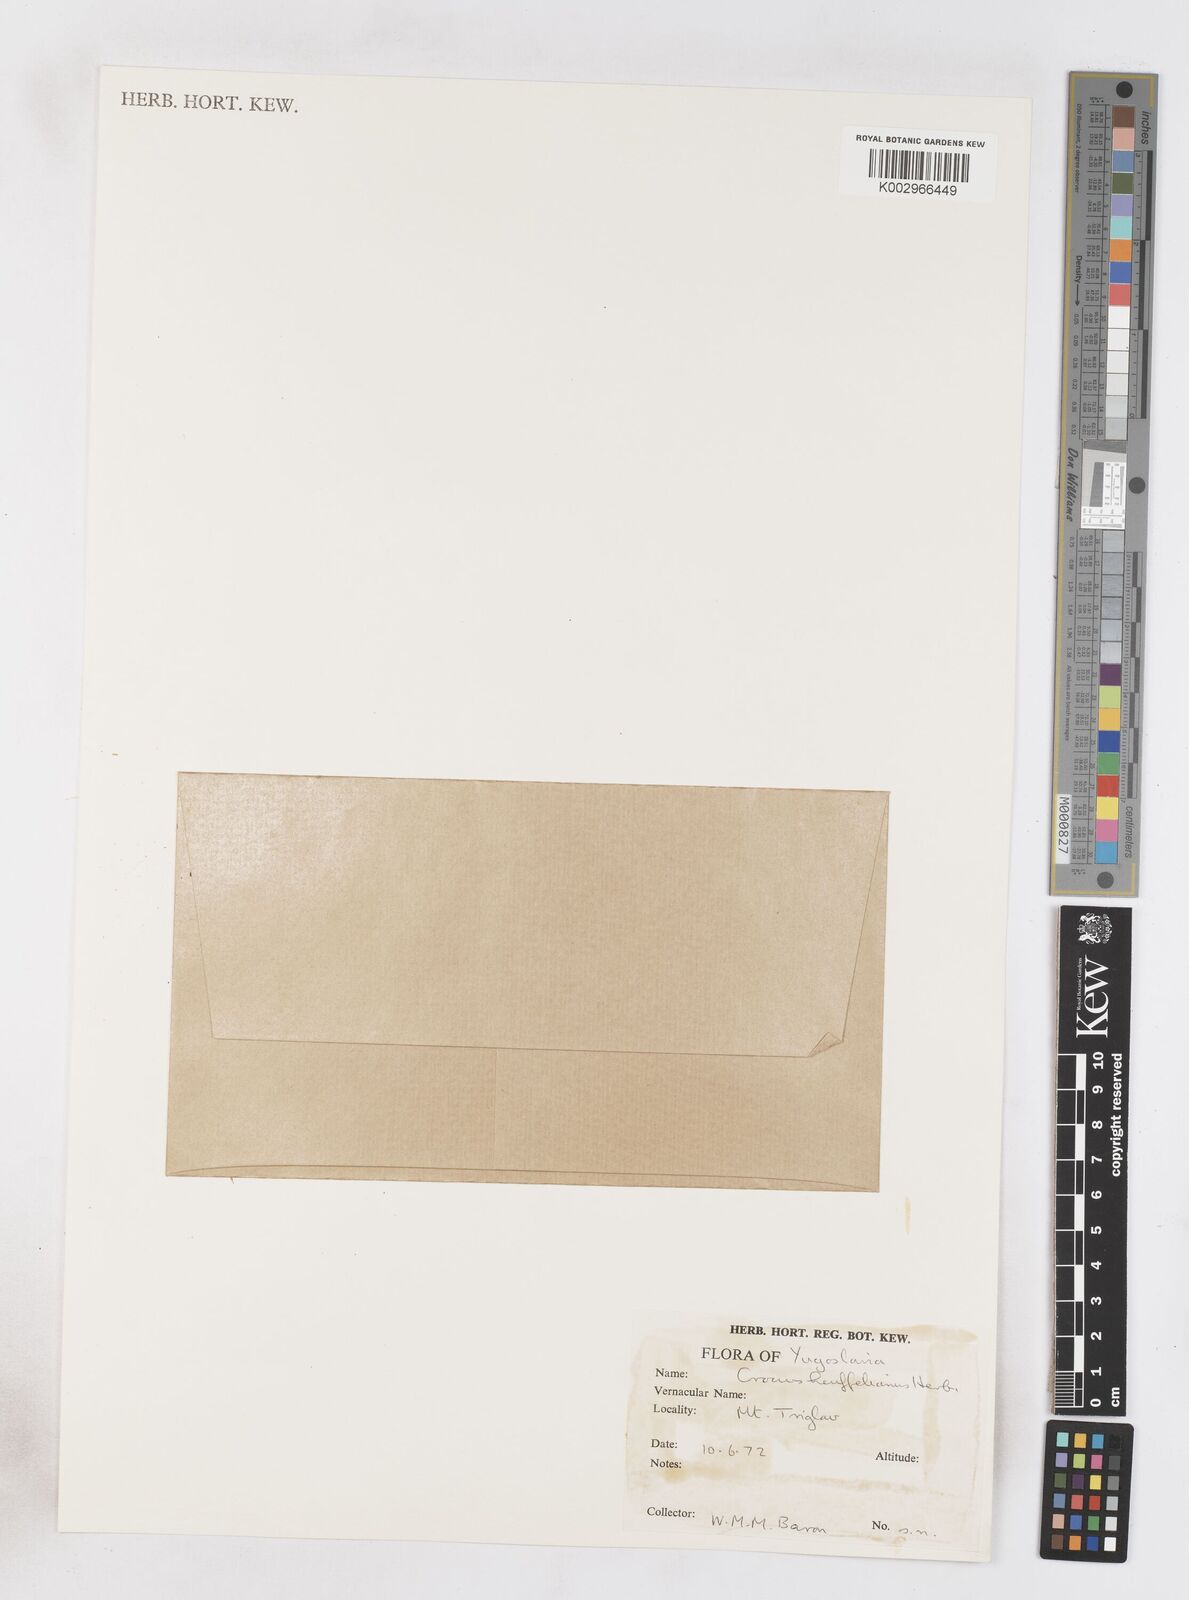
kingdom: Plantae
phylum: Tracheophyta
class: Liliopsida
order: Asparagales
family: Iridaceae
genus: Crocus
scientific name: Crocus vernus
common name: Spring crocus
